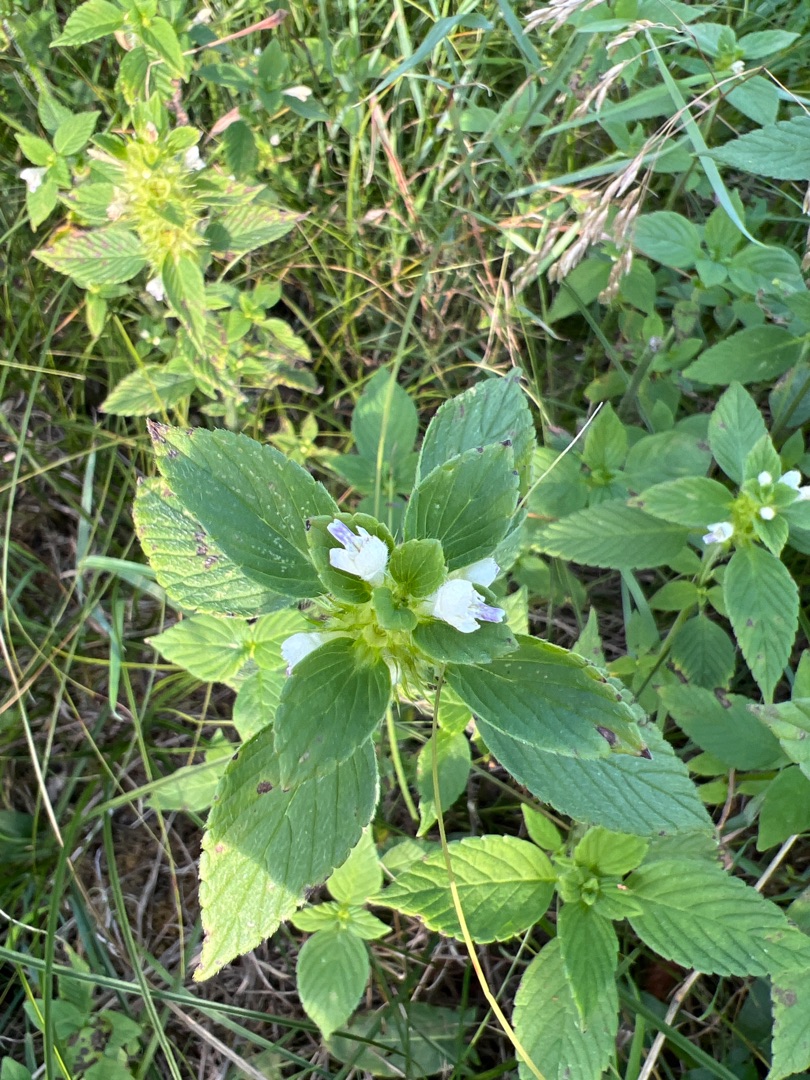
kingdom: Plantae
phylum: Tracheophyta
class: Magnoliopsida
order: Lamiales
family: Lamiaceae
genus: Galeopsis
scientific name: Galeopsis bifida
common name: Skov-hanekro
